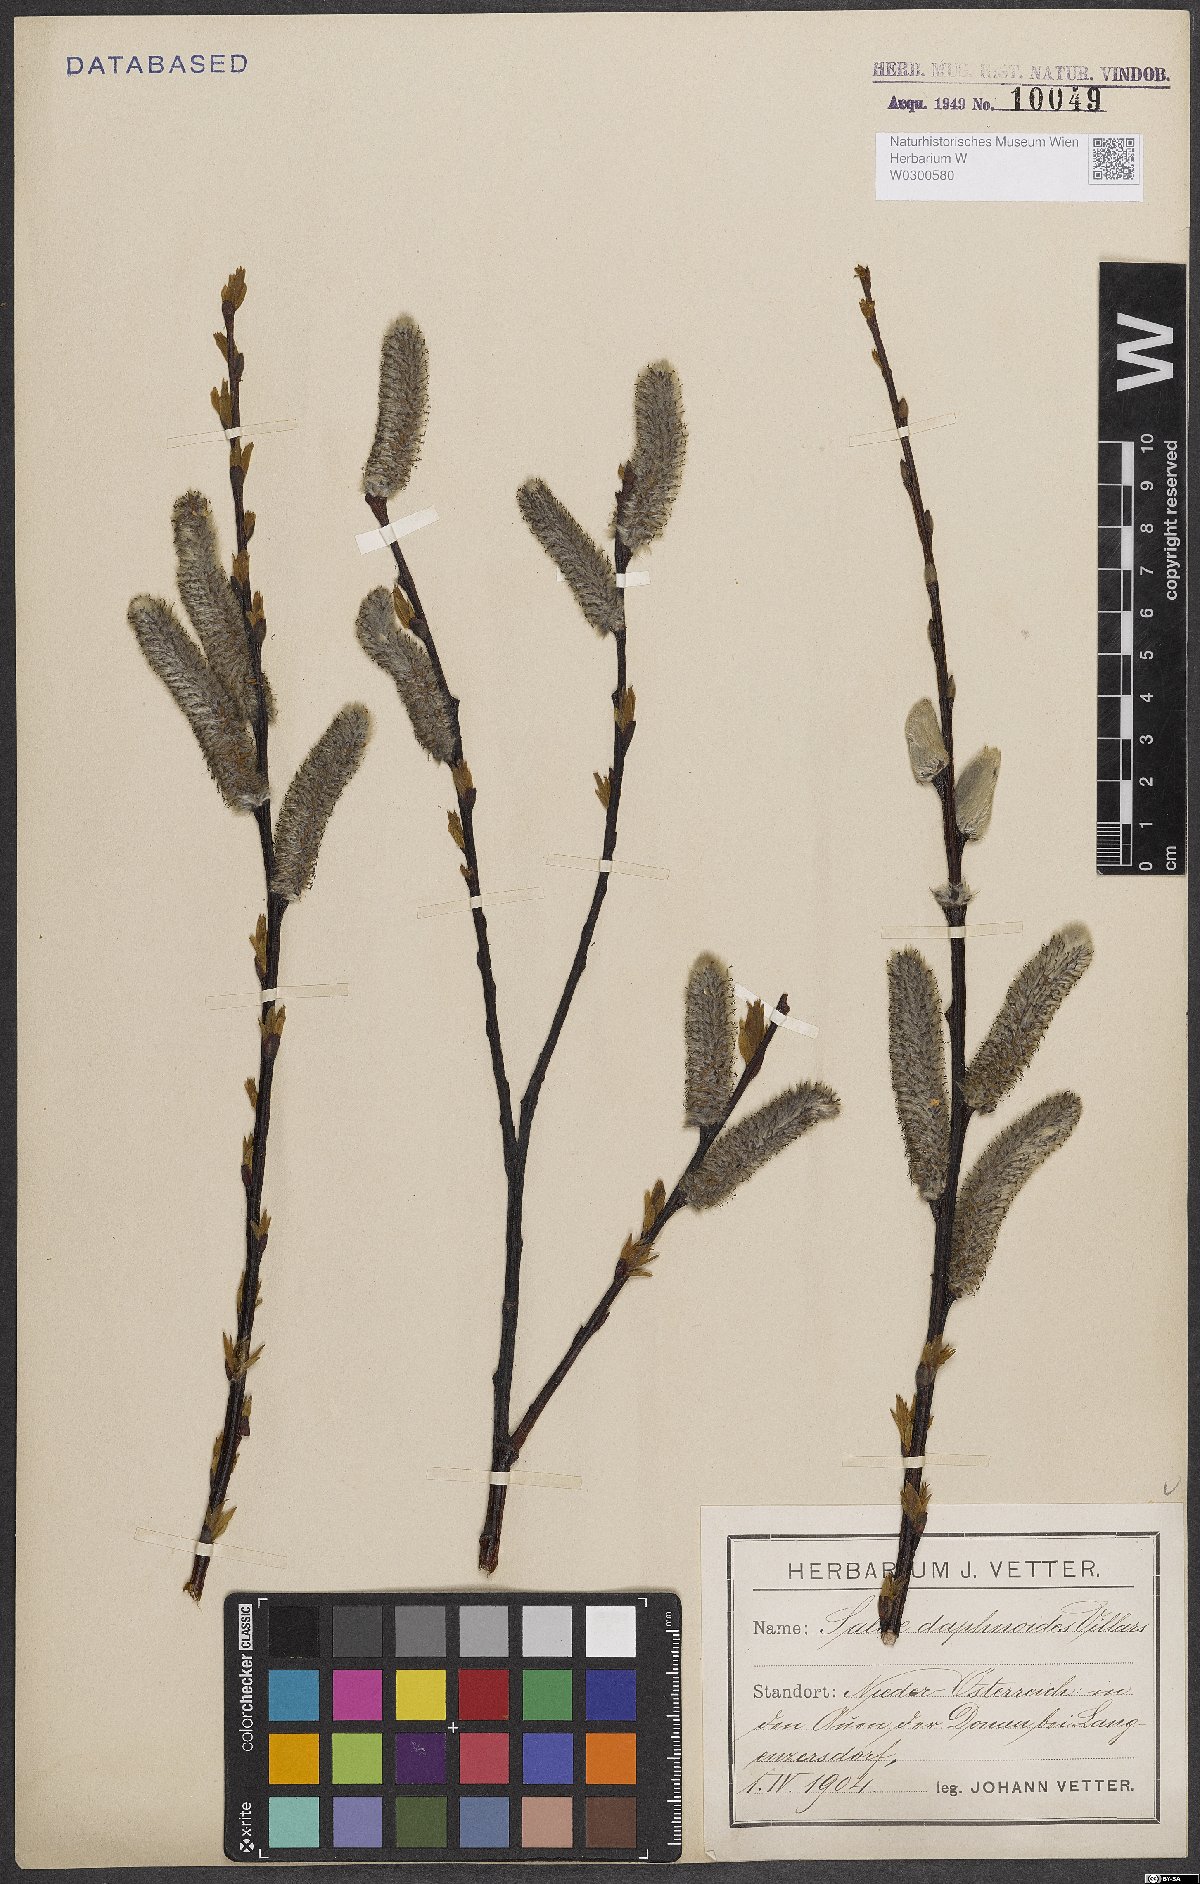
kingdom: Plantae
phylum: Tracheophyta
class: Magnoliopsida
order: Malpighiales
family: Salicaceae
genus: Salix
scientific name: Salix daphnoides
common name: European violet-willow
